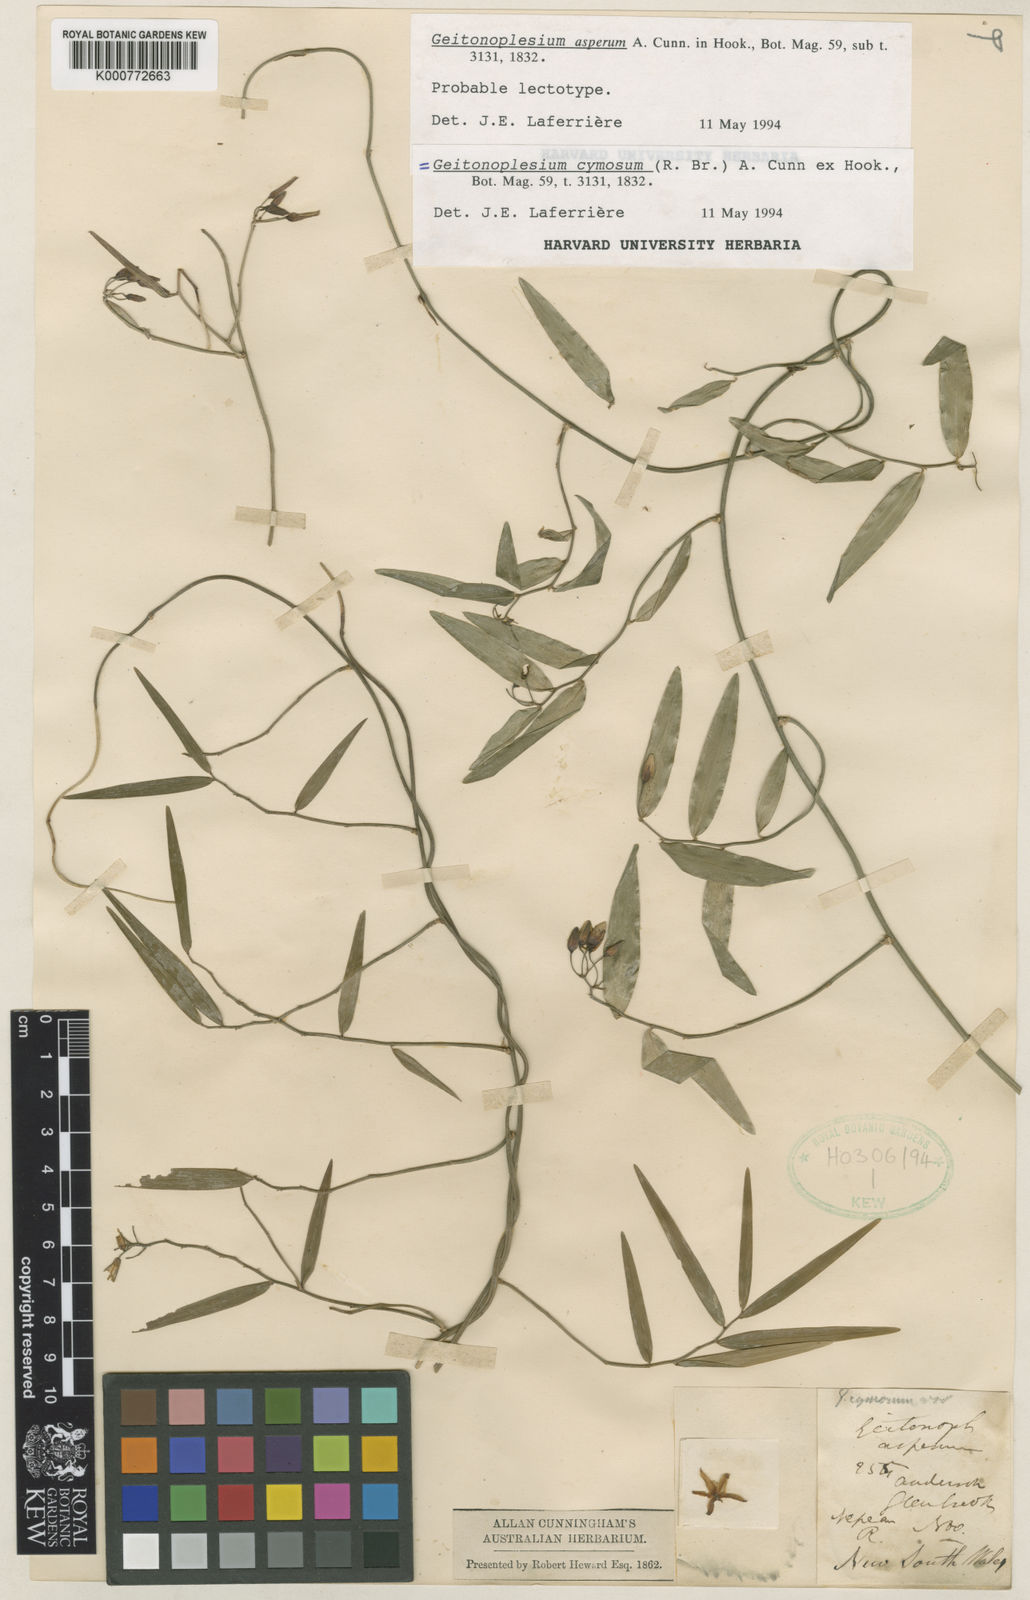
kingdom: Plantae
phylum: Tracheophyta
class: Liliopsida
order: Asparagales
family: Asphodelaceae
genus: Geitonoplesium
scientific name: Geitonoplesium
